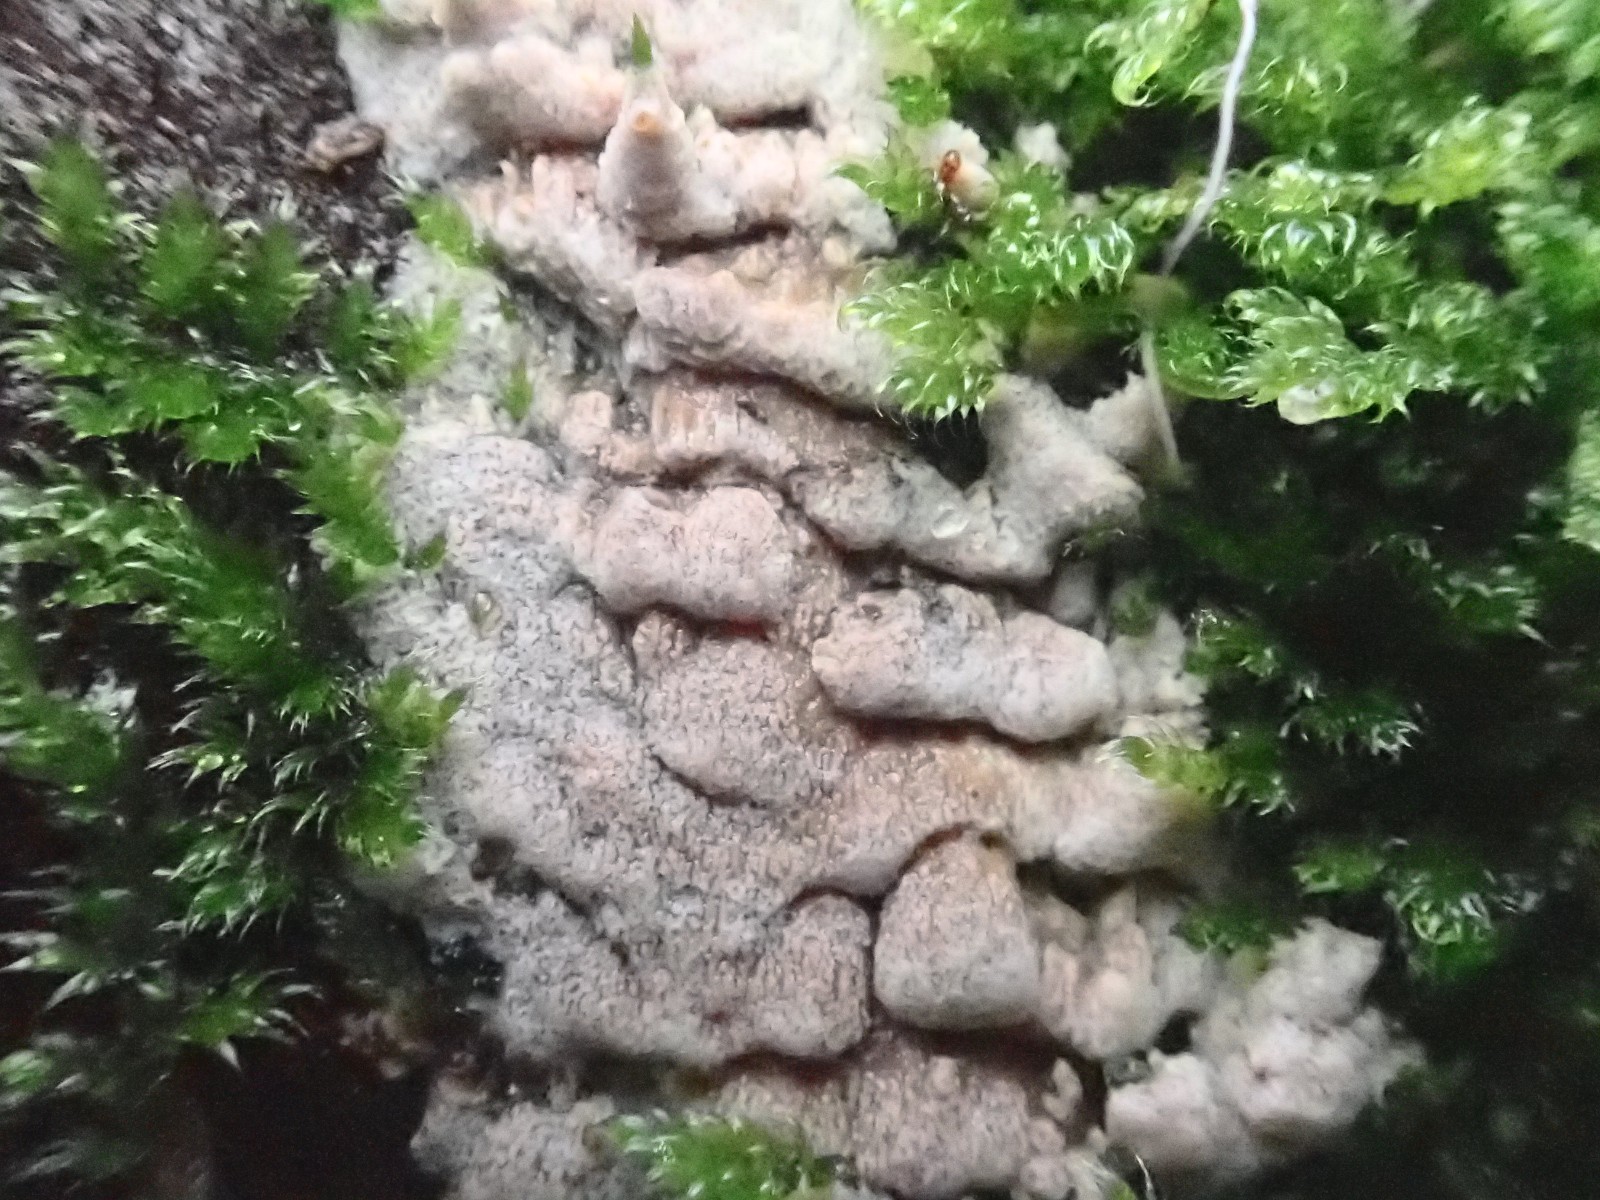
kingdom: Fungi
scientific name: Fungi
